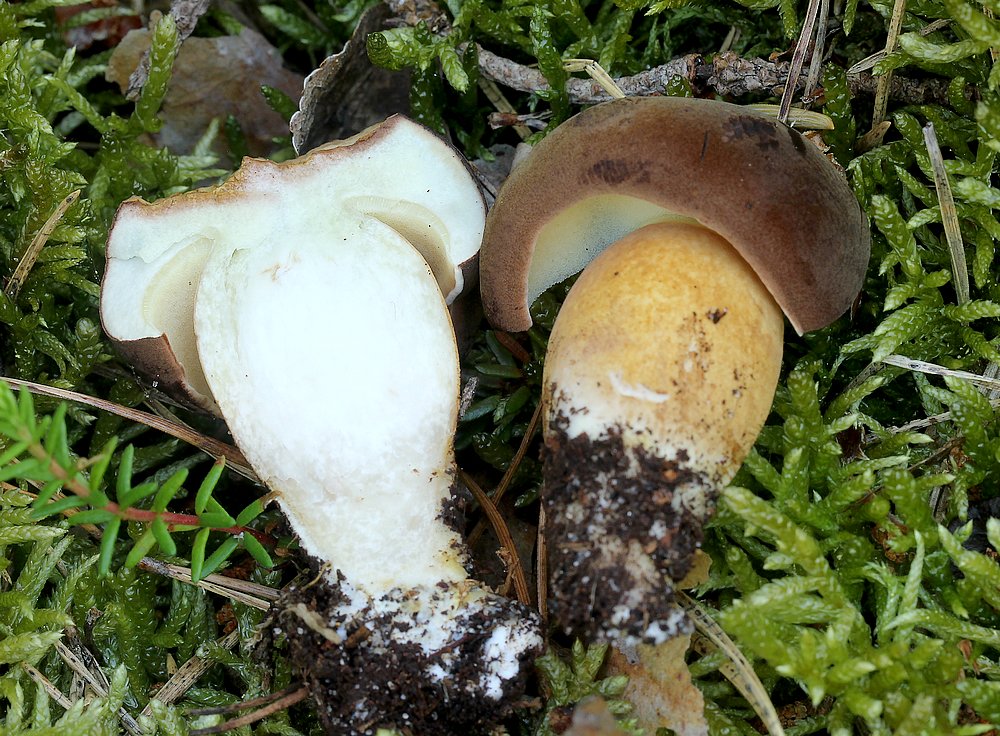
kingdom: Fungi
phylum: Basidiomycota
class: Agaricomycetes
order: Boletales
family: Boletaceae
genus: Imleria
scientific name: Imleria badia
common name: brunstokket rørhat
